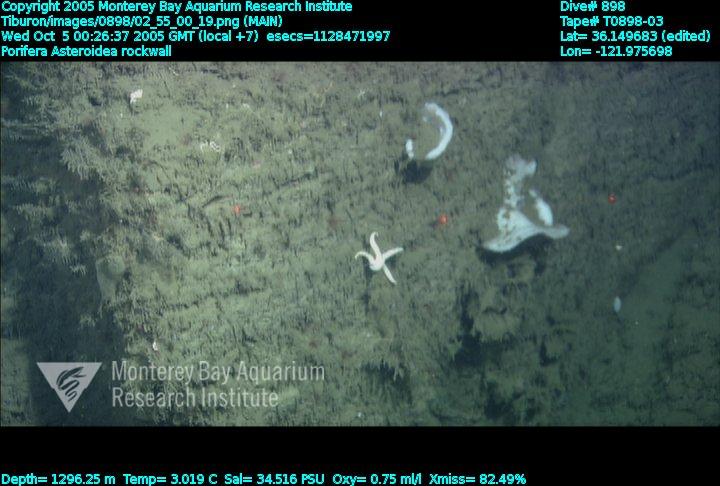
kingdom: Animalia
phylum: Porifera
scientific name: Porifera
